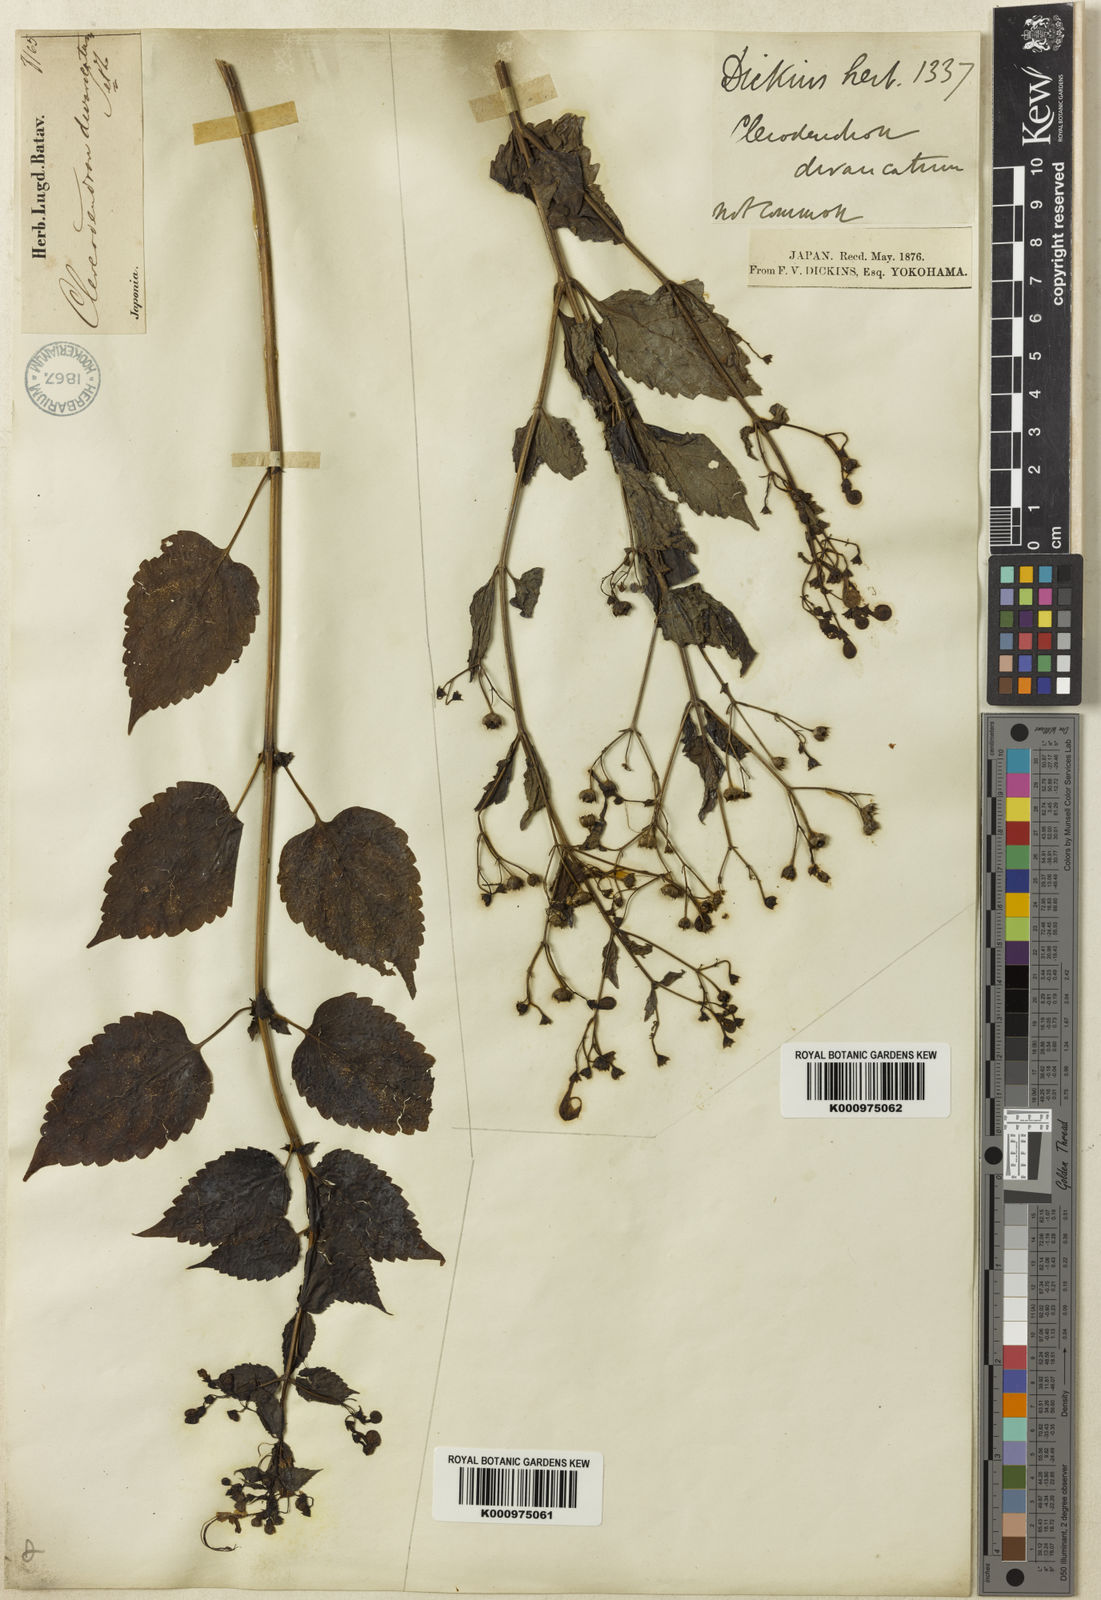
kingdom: Plantae
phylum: Tracheophyta
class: Magnoliopsida
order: Lamiales
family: Lamiaceae
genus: Tripora
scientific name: Tripora divaricata
